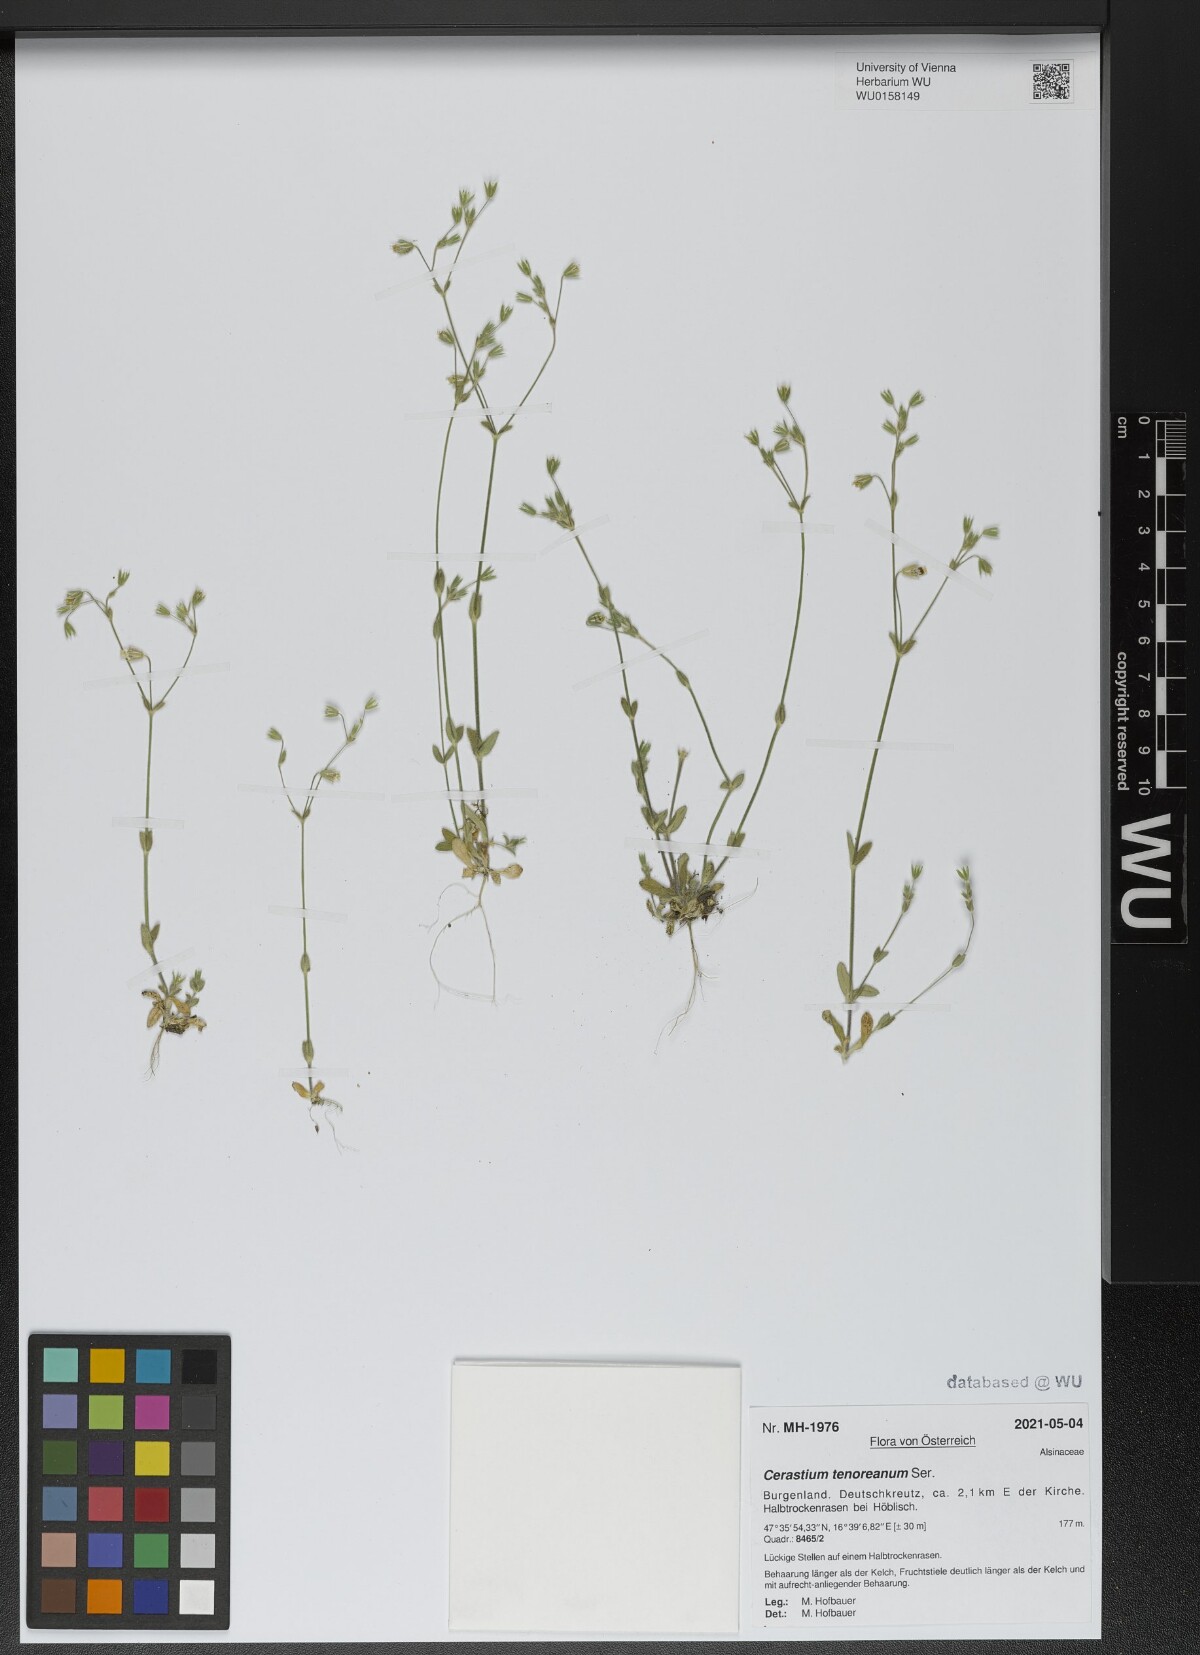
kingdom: Plantae
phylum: Tracheophyta
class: Magnoliopsida
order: Caryophyllales
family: Caryophyllaceae
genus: Cerastium
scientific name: Cerastium tenoreanum
